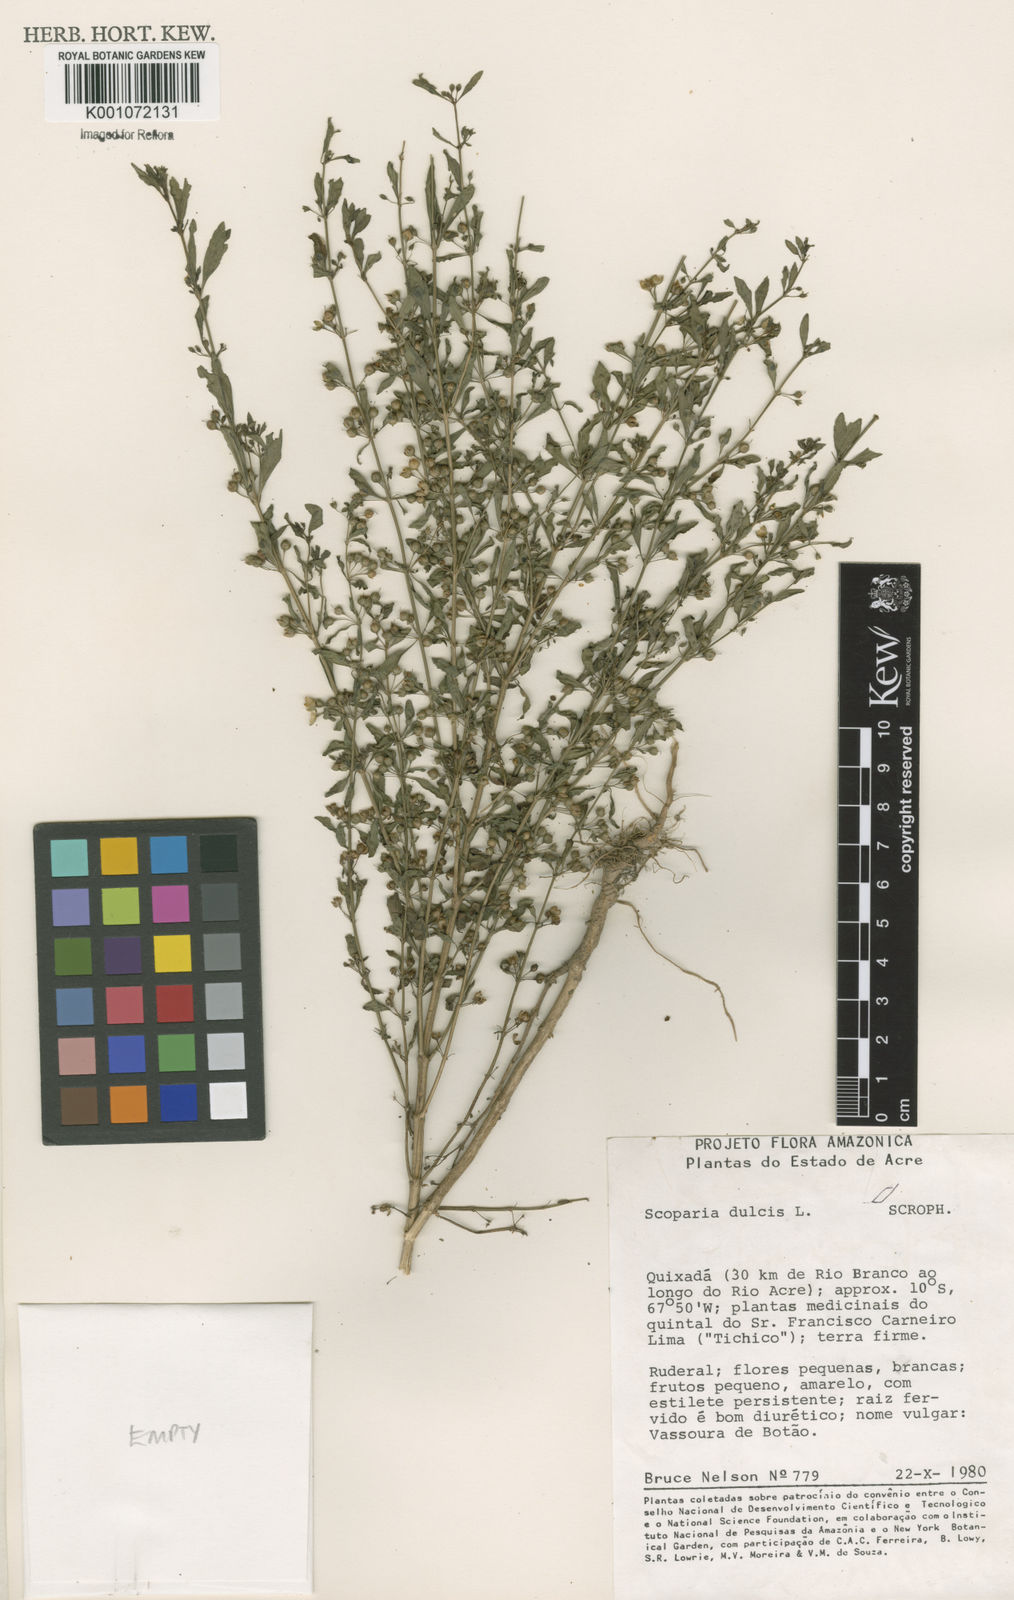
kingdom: Plantae
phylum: Tracheophyta
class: Magnoliopsida
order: Lamiales
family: Plantaginaceae
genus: Scoparia
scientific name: Scoparia dulcis
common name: Scoparia-weed
